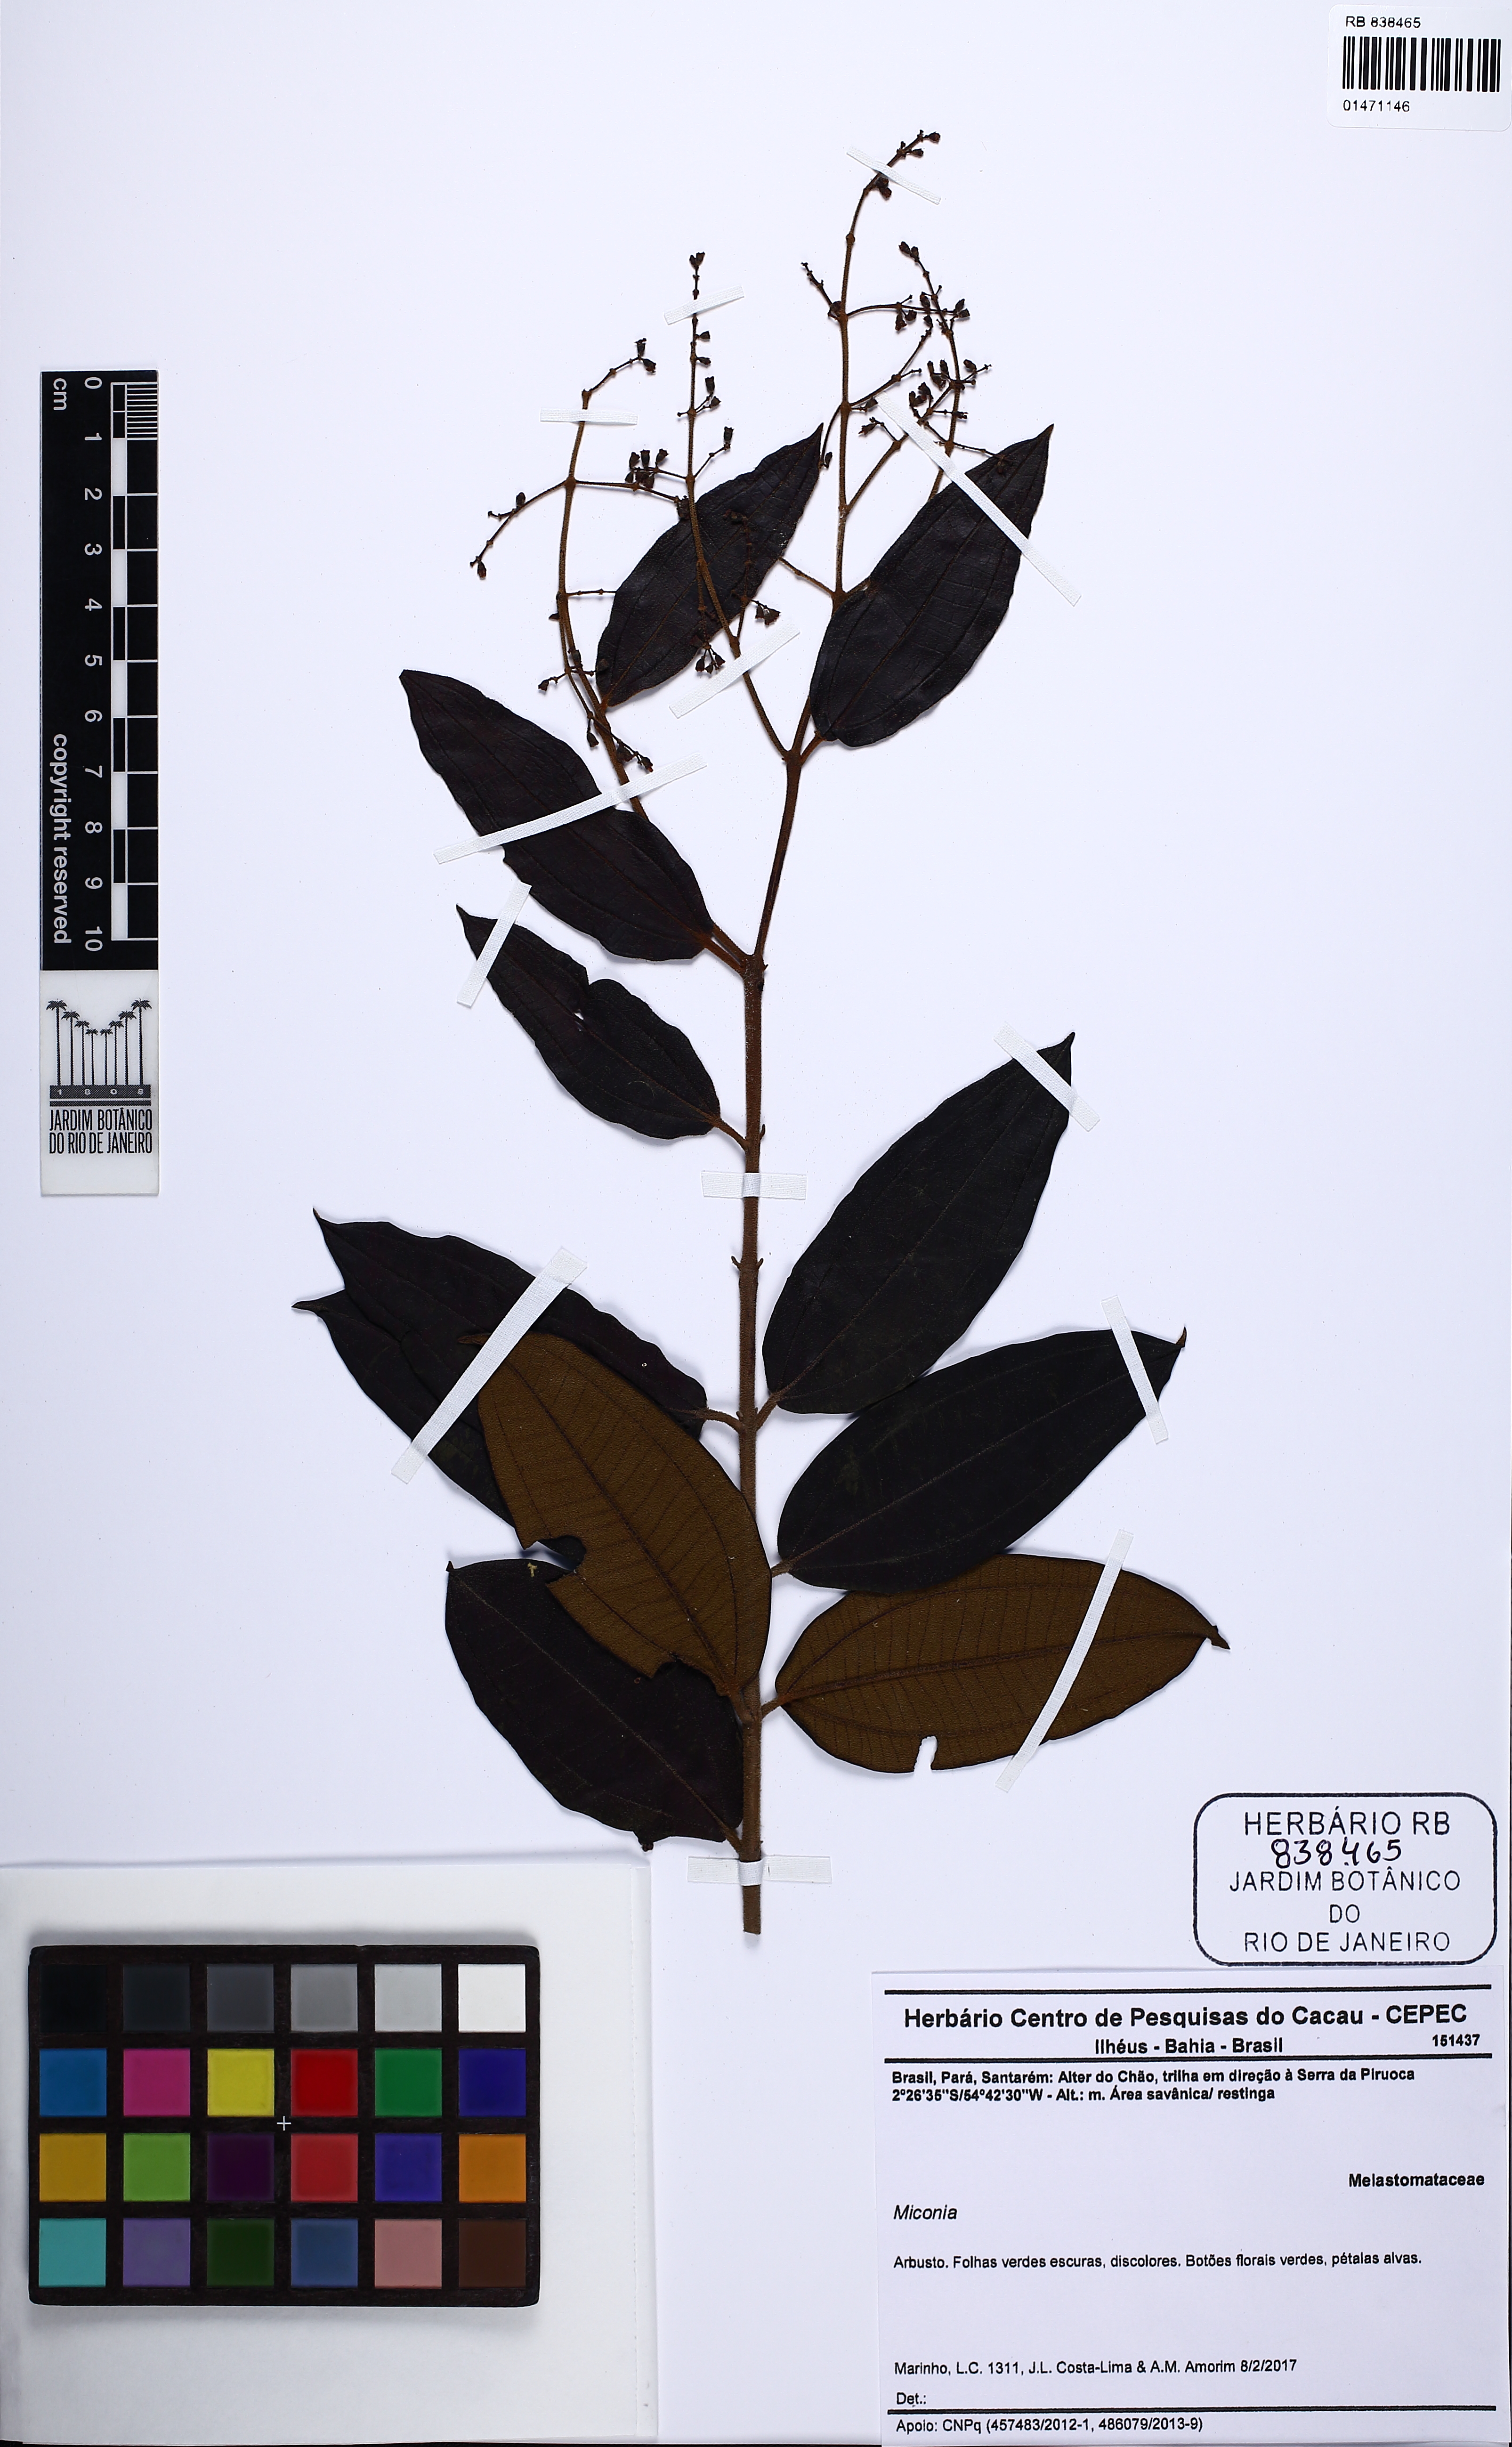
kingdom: Plantae
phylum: Tracheophyta
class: Magnoliopsida
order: Myrtales
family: Melastomataceae
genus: Miconia
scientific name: Miconia
